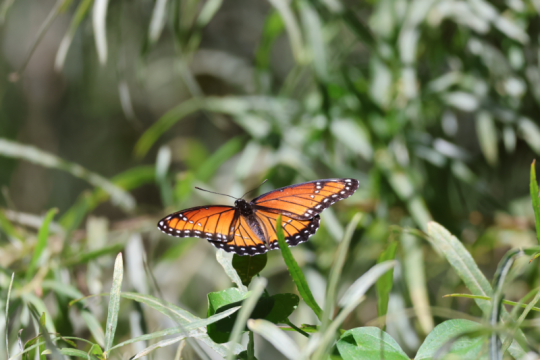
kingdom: Animalia
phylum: Arthropoda
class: Insecta
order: Lepidoptera
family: Nymphalidae
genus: Limenitis
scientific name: Limenitis archippus
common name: Viceroy
